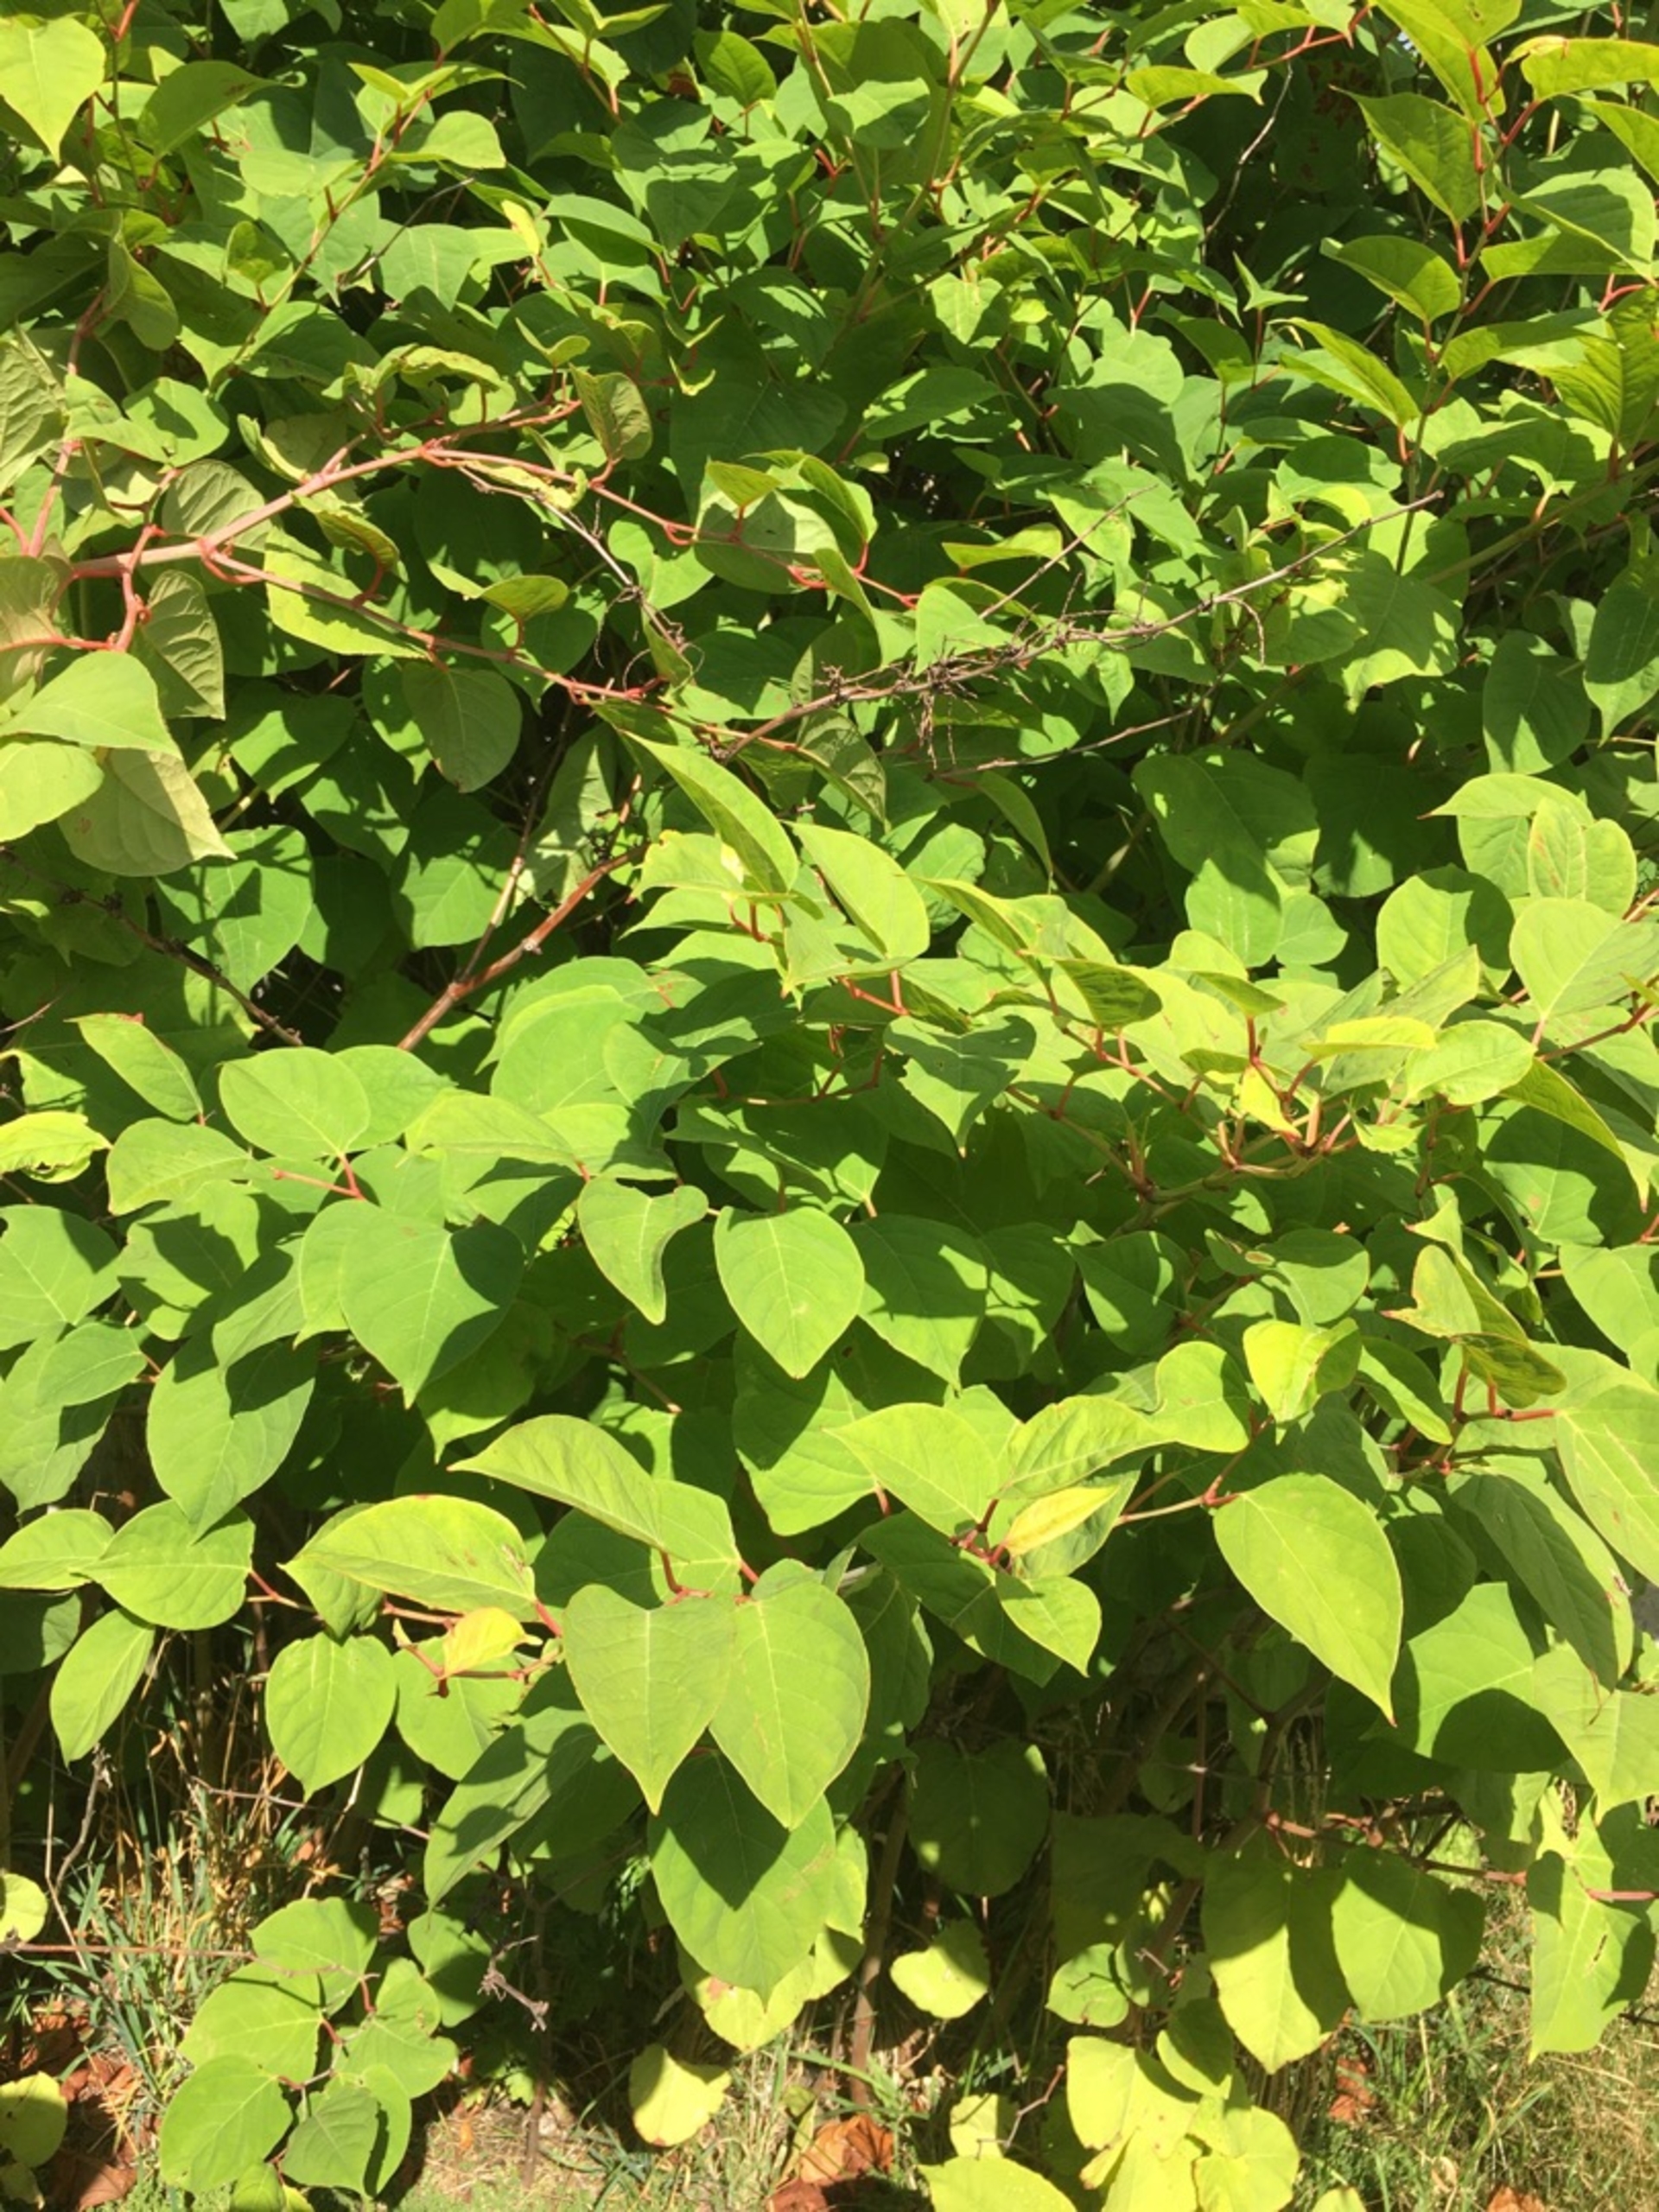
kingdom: Plantae
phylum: Tracheophyta
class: Magnoliopsida
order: Caryophyllales
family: Polygonaceae
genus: Reynoutria
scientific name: Reynoutria japonica
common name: Japan-pileurt
